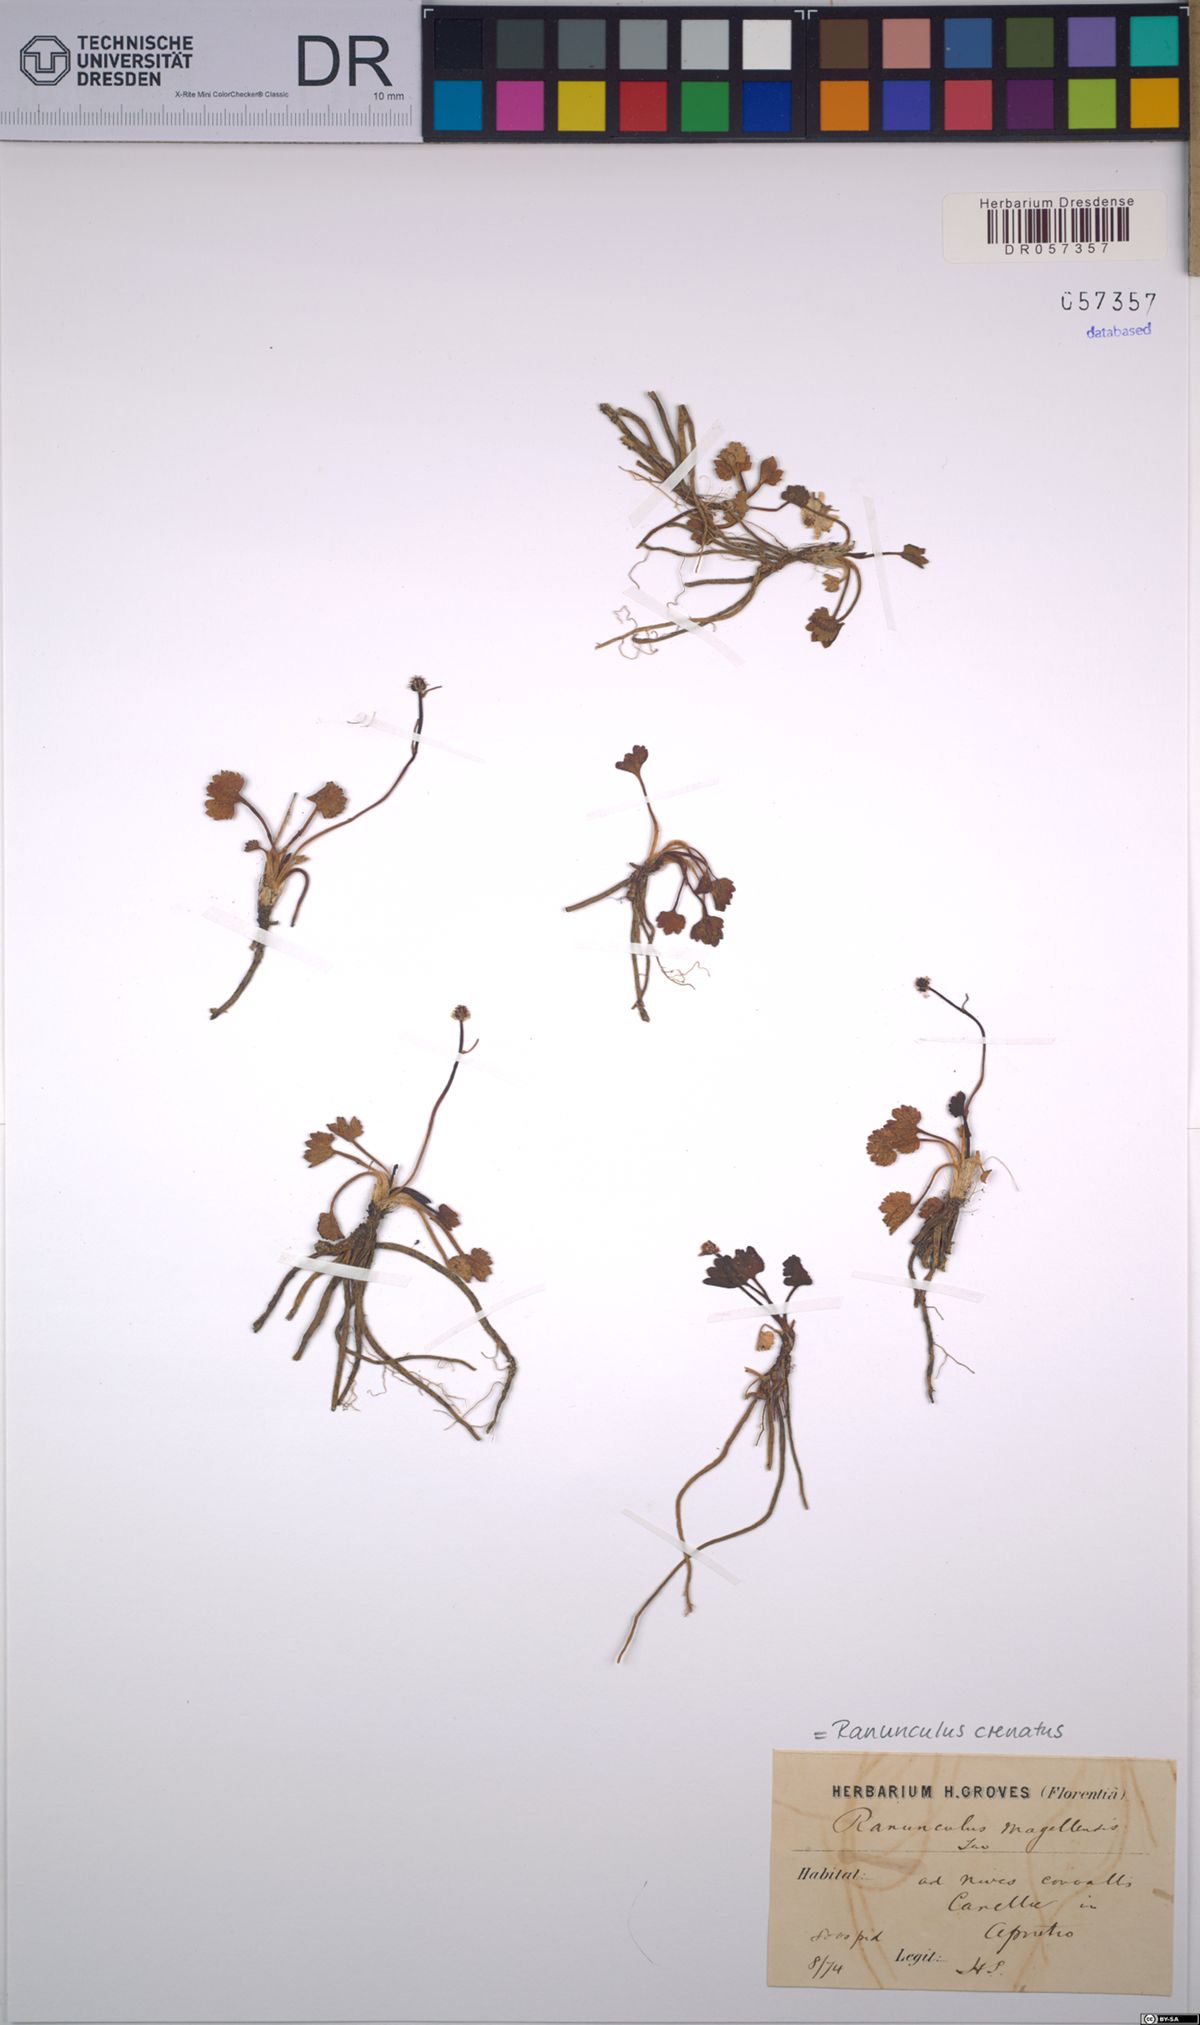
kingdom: Plantae
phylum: Tracheophyta
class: Magnoliopsida
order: Ranunculales
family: Ranunculaceae
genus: Ranunculus
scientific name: Ranunculus crenatus
